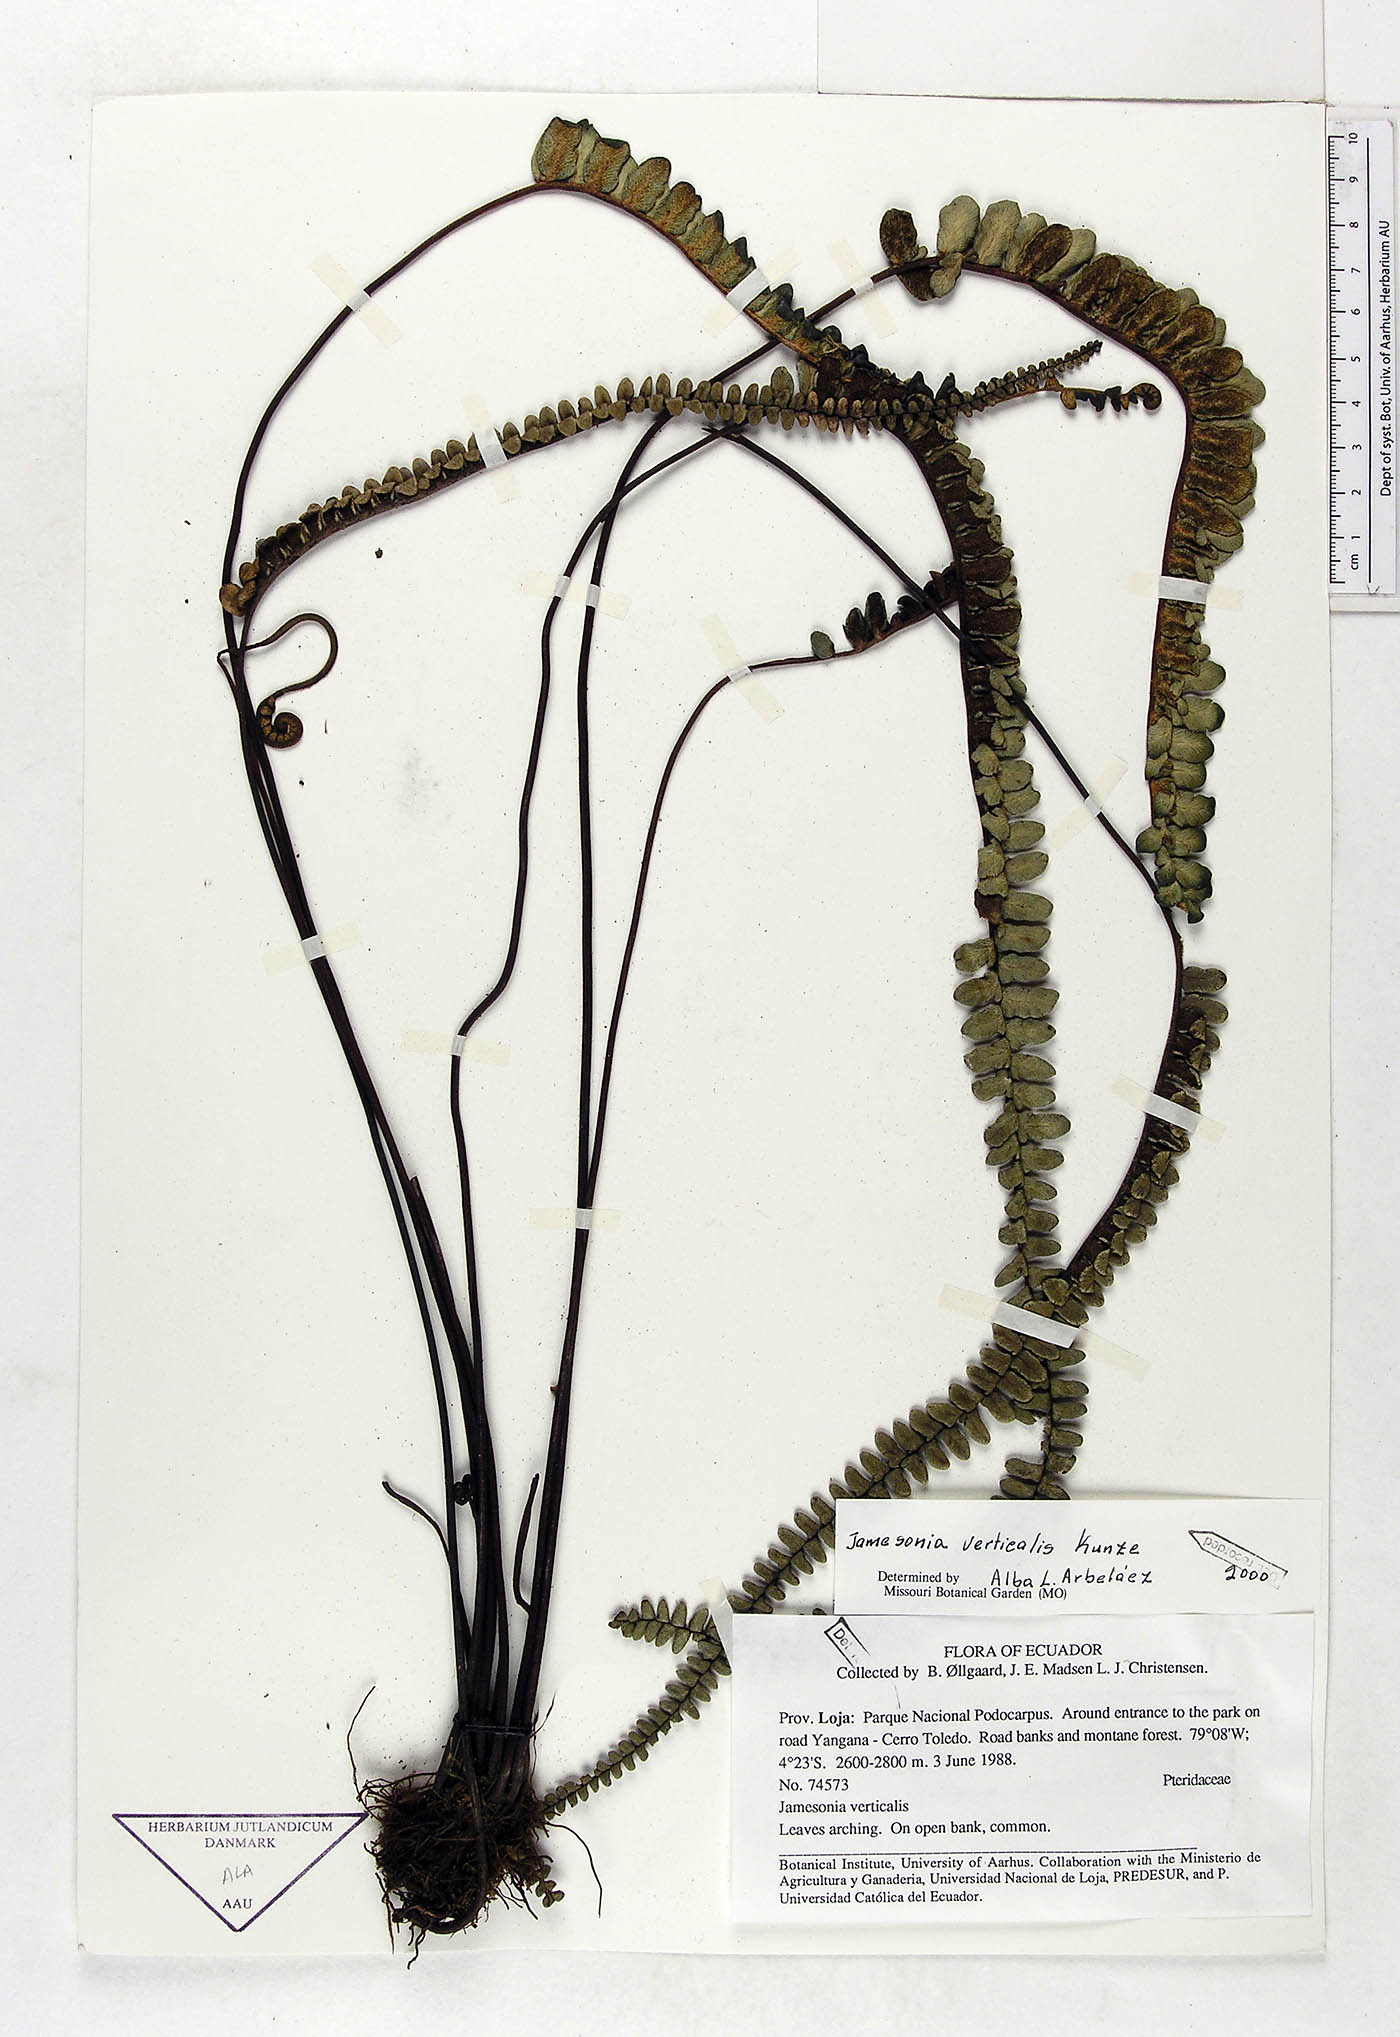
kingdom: Plantae
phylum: Tracheophyta
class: Polypodiopsida
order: Polypodiales
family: Pteridaceae
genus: Jamesonia
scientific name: Jamesonia verticalis
